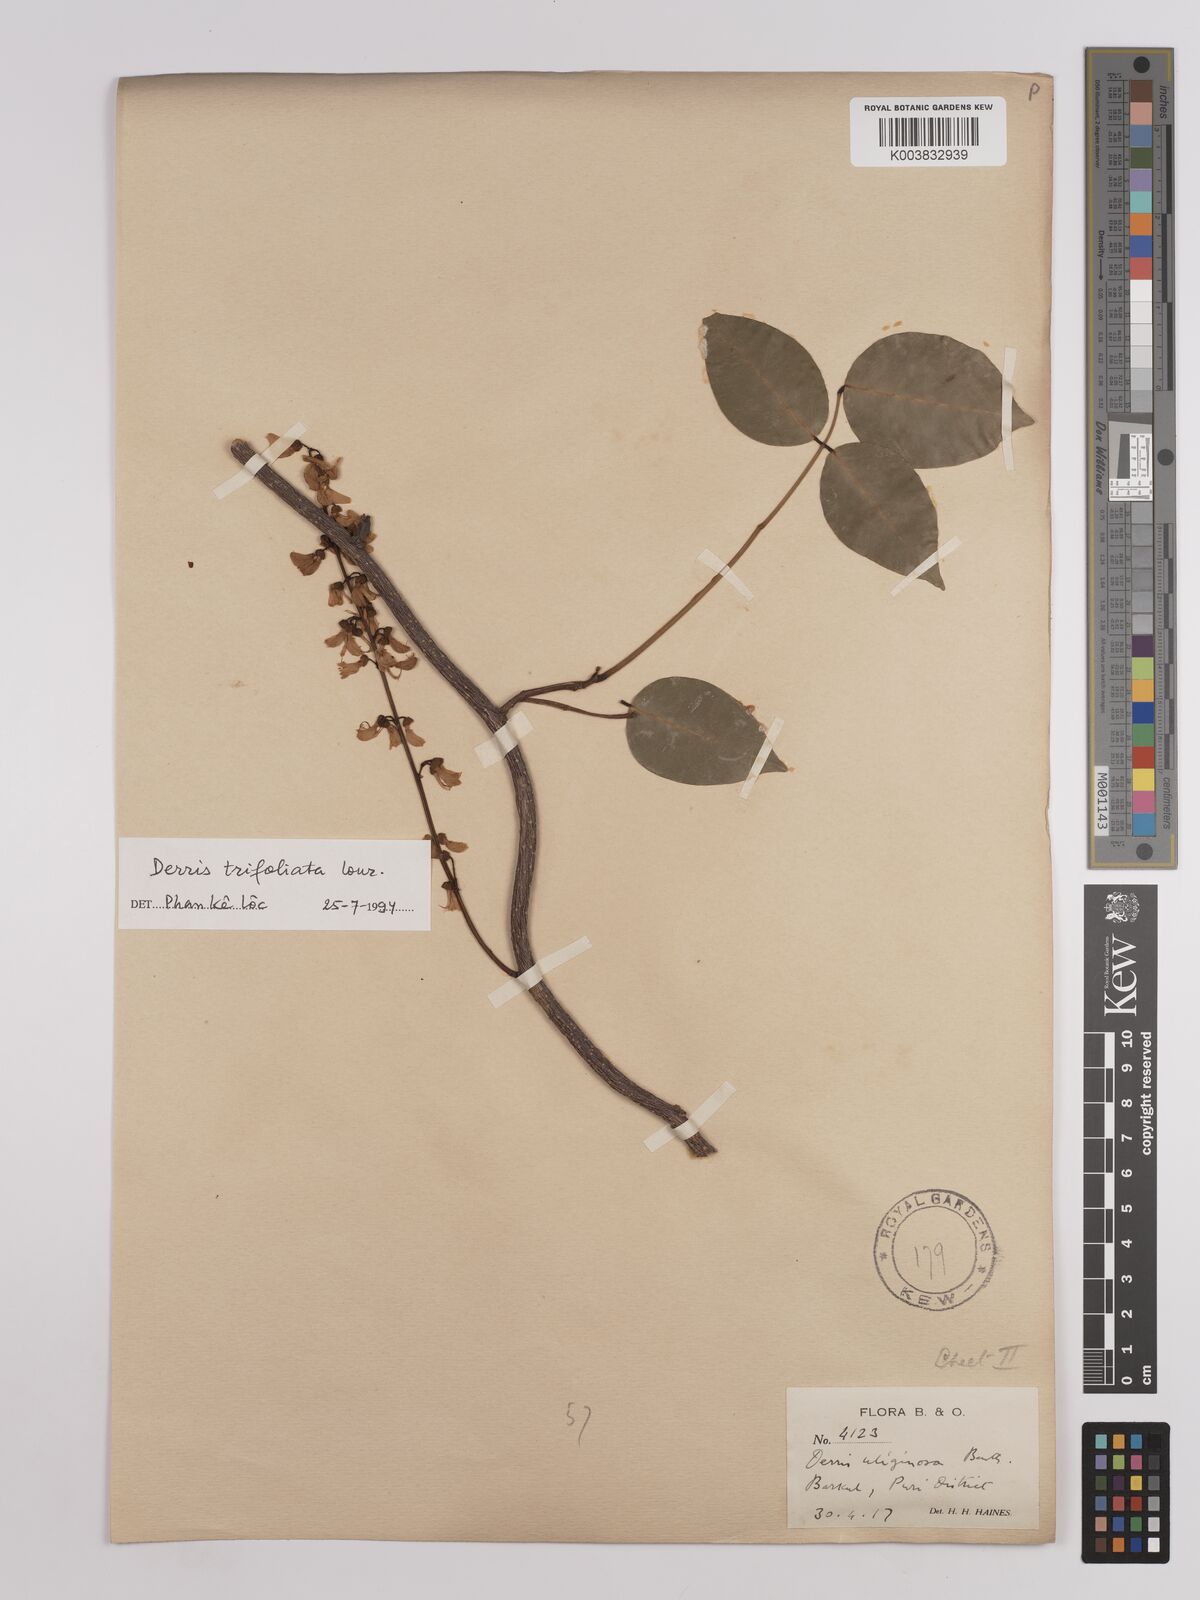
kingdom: Plantae
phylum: Tracheophyta
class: Magnoliopsida
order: Fabales
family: Fabaceae
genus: Derris
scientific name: Derris trifoliata
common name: Three-leaf derris
